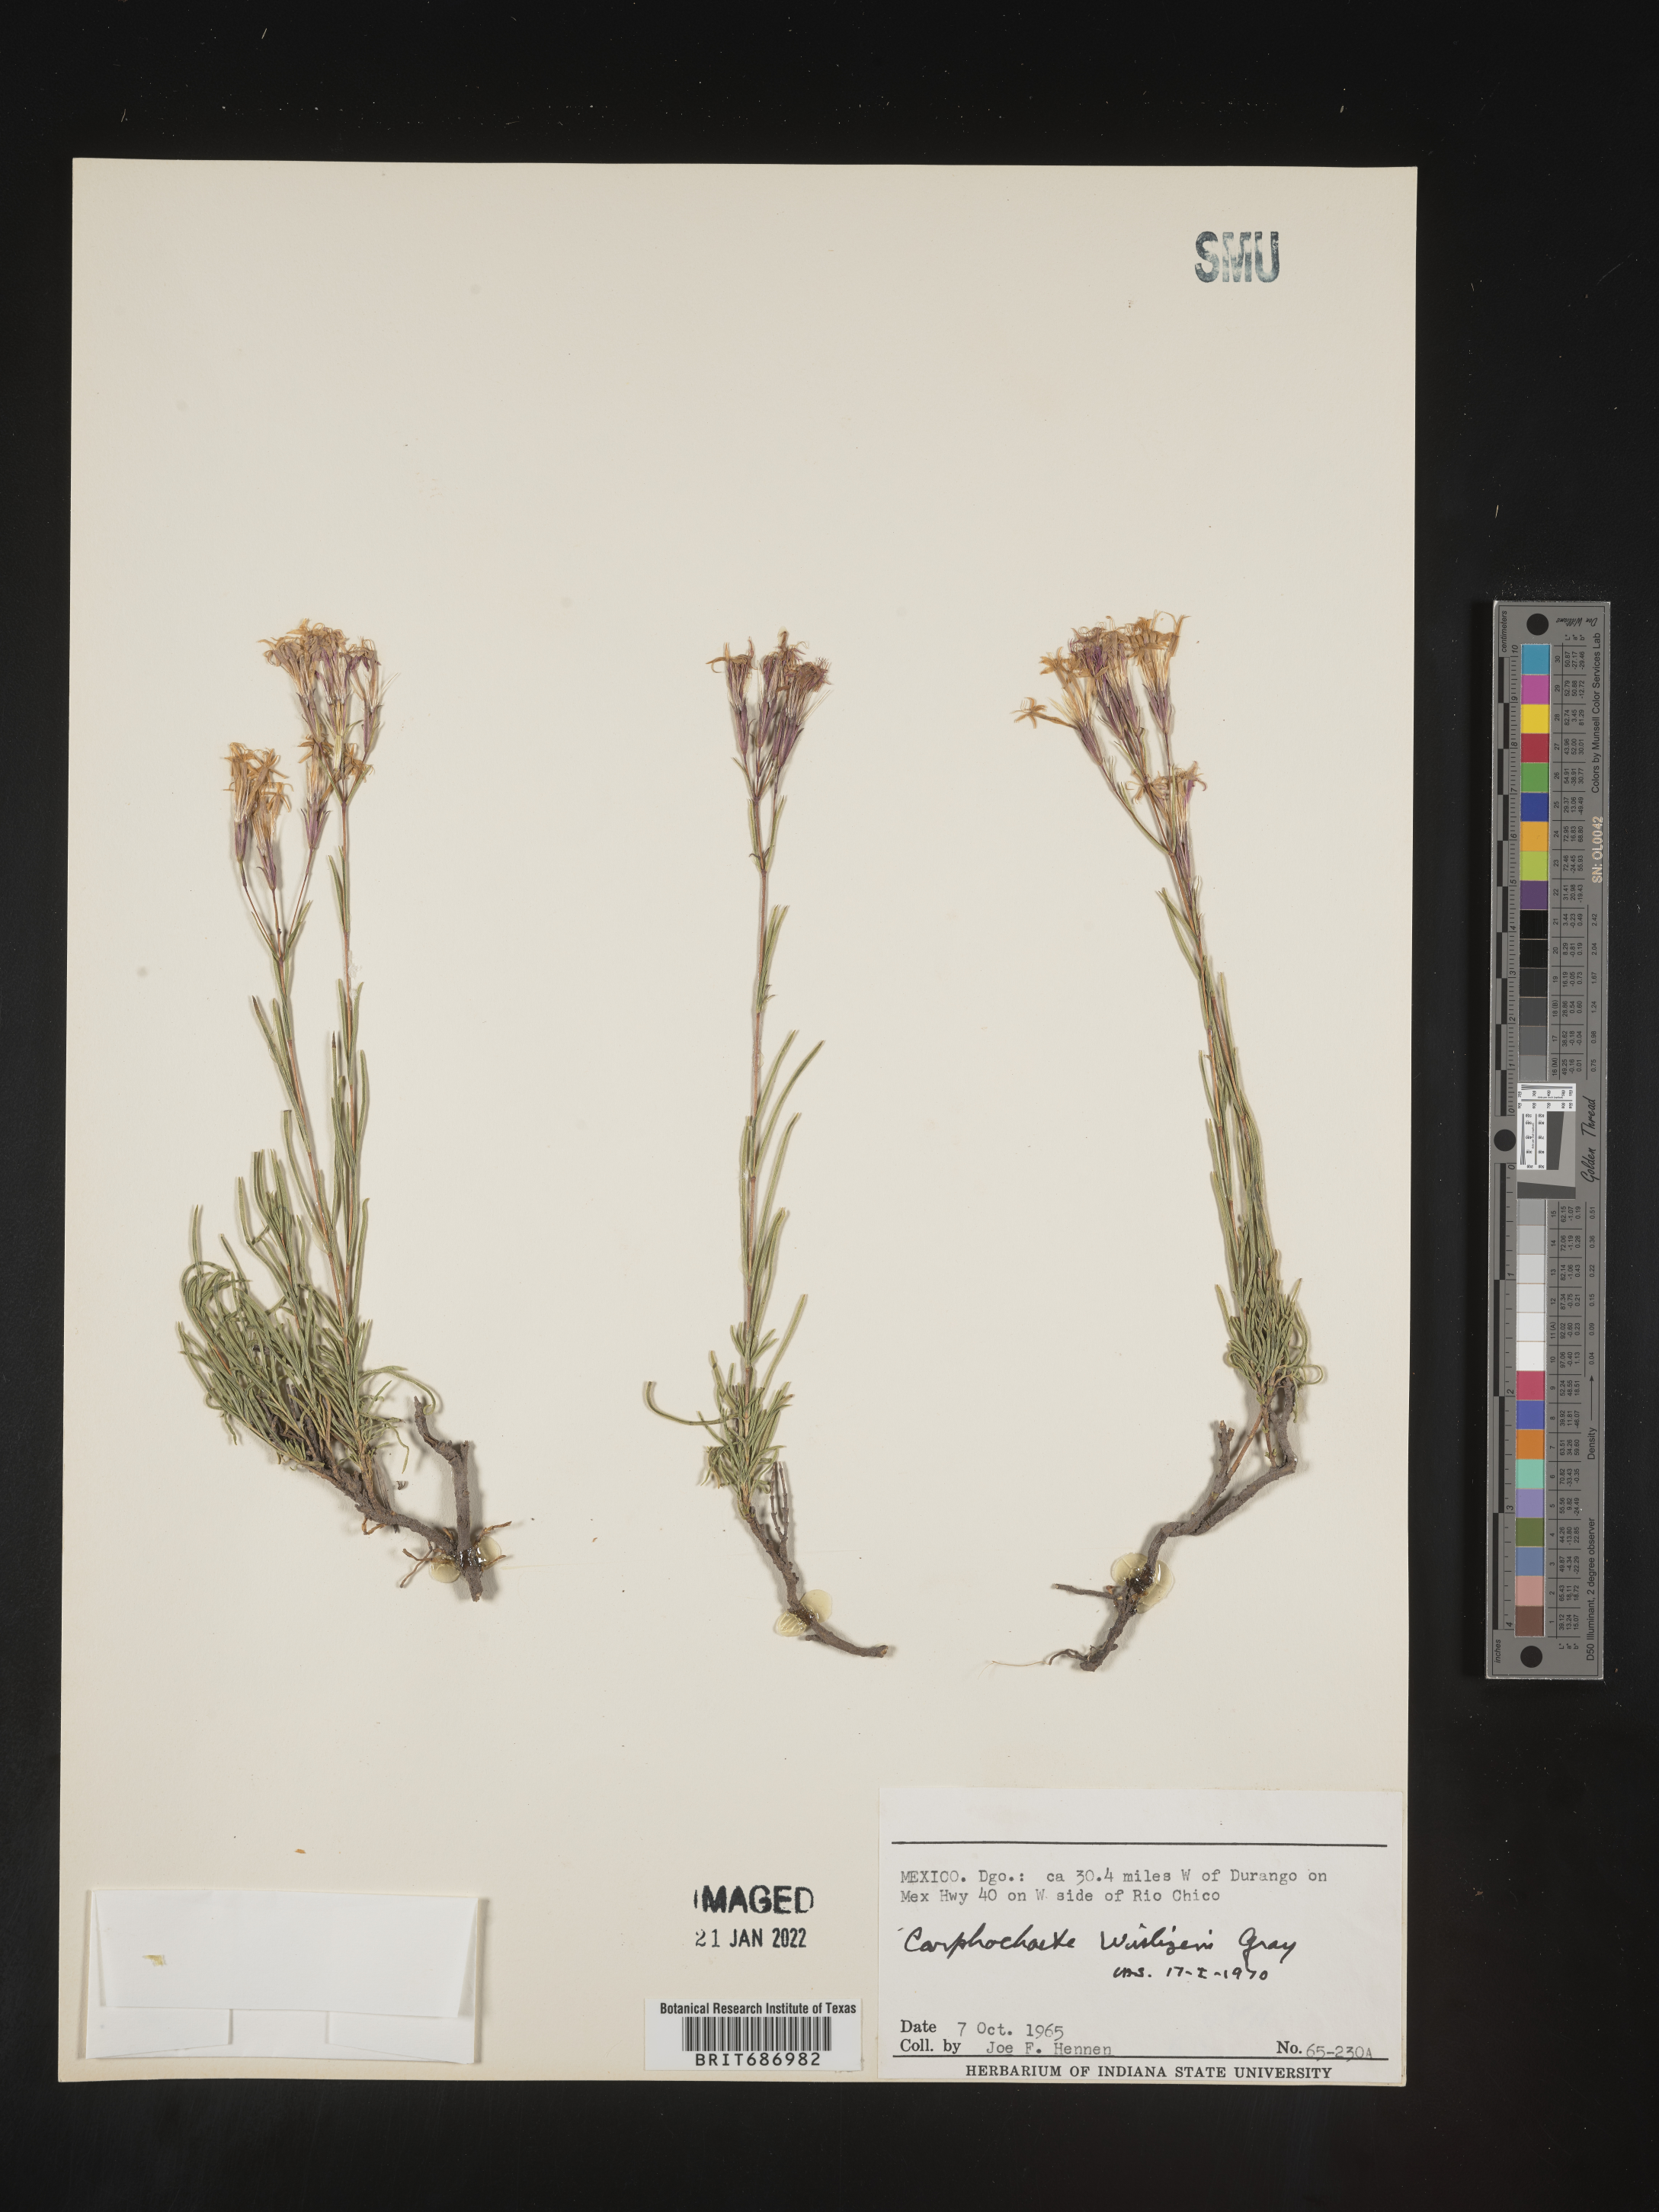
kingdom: Plantae
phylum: Tracheophyta
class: Magnoliopsida
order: Asterales
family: Asteraceae
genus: Carphochaete
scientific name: Carphochaete
